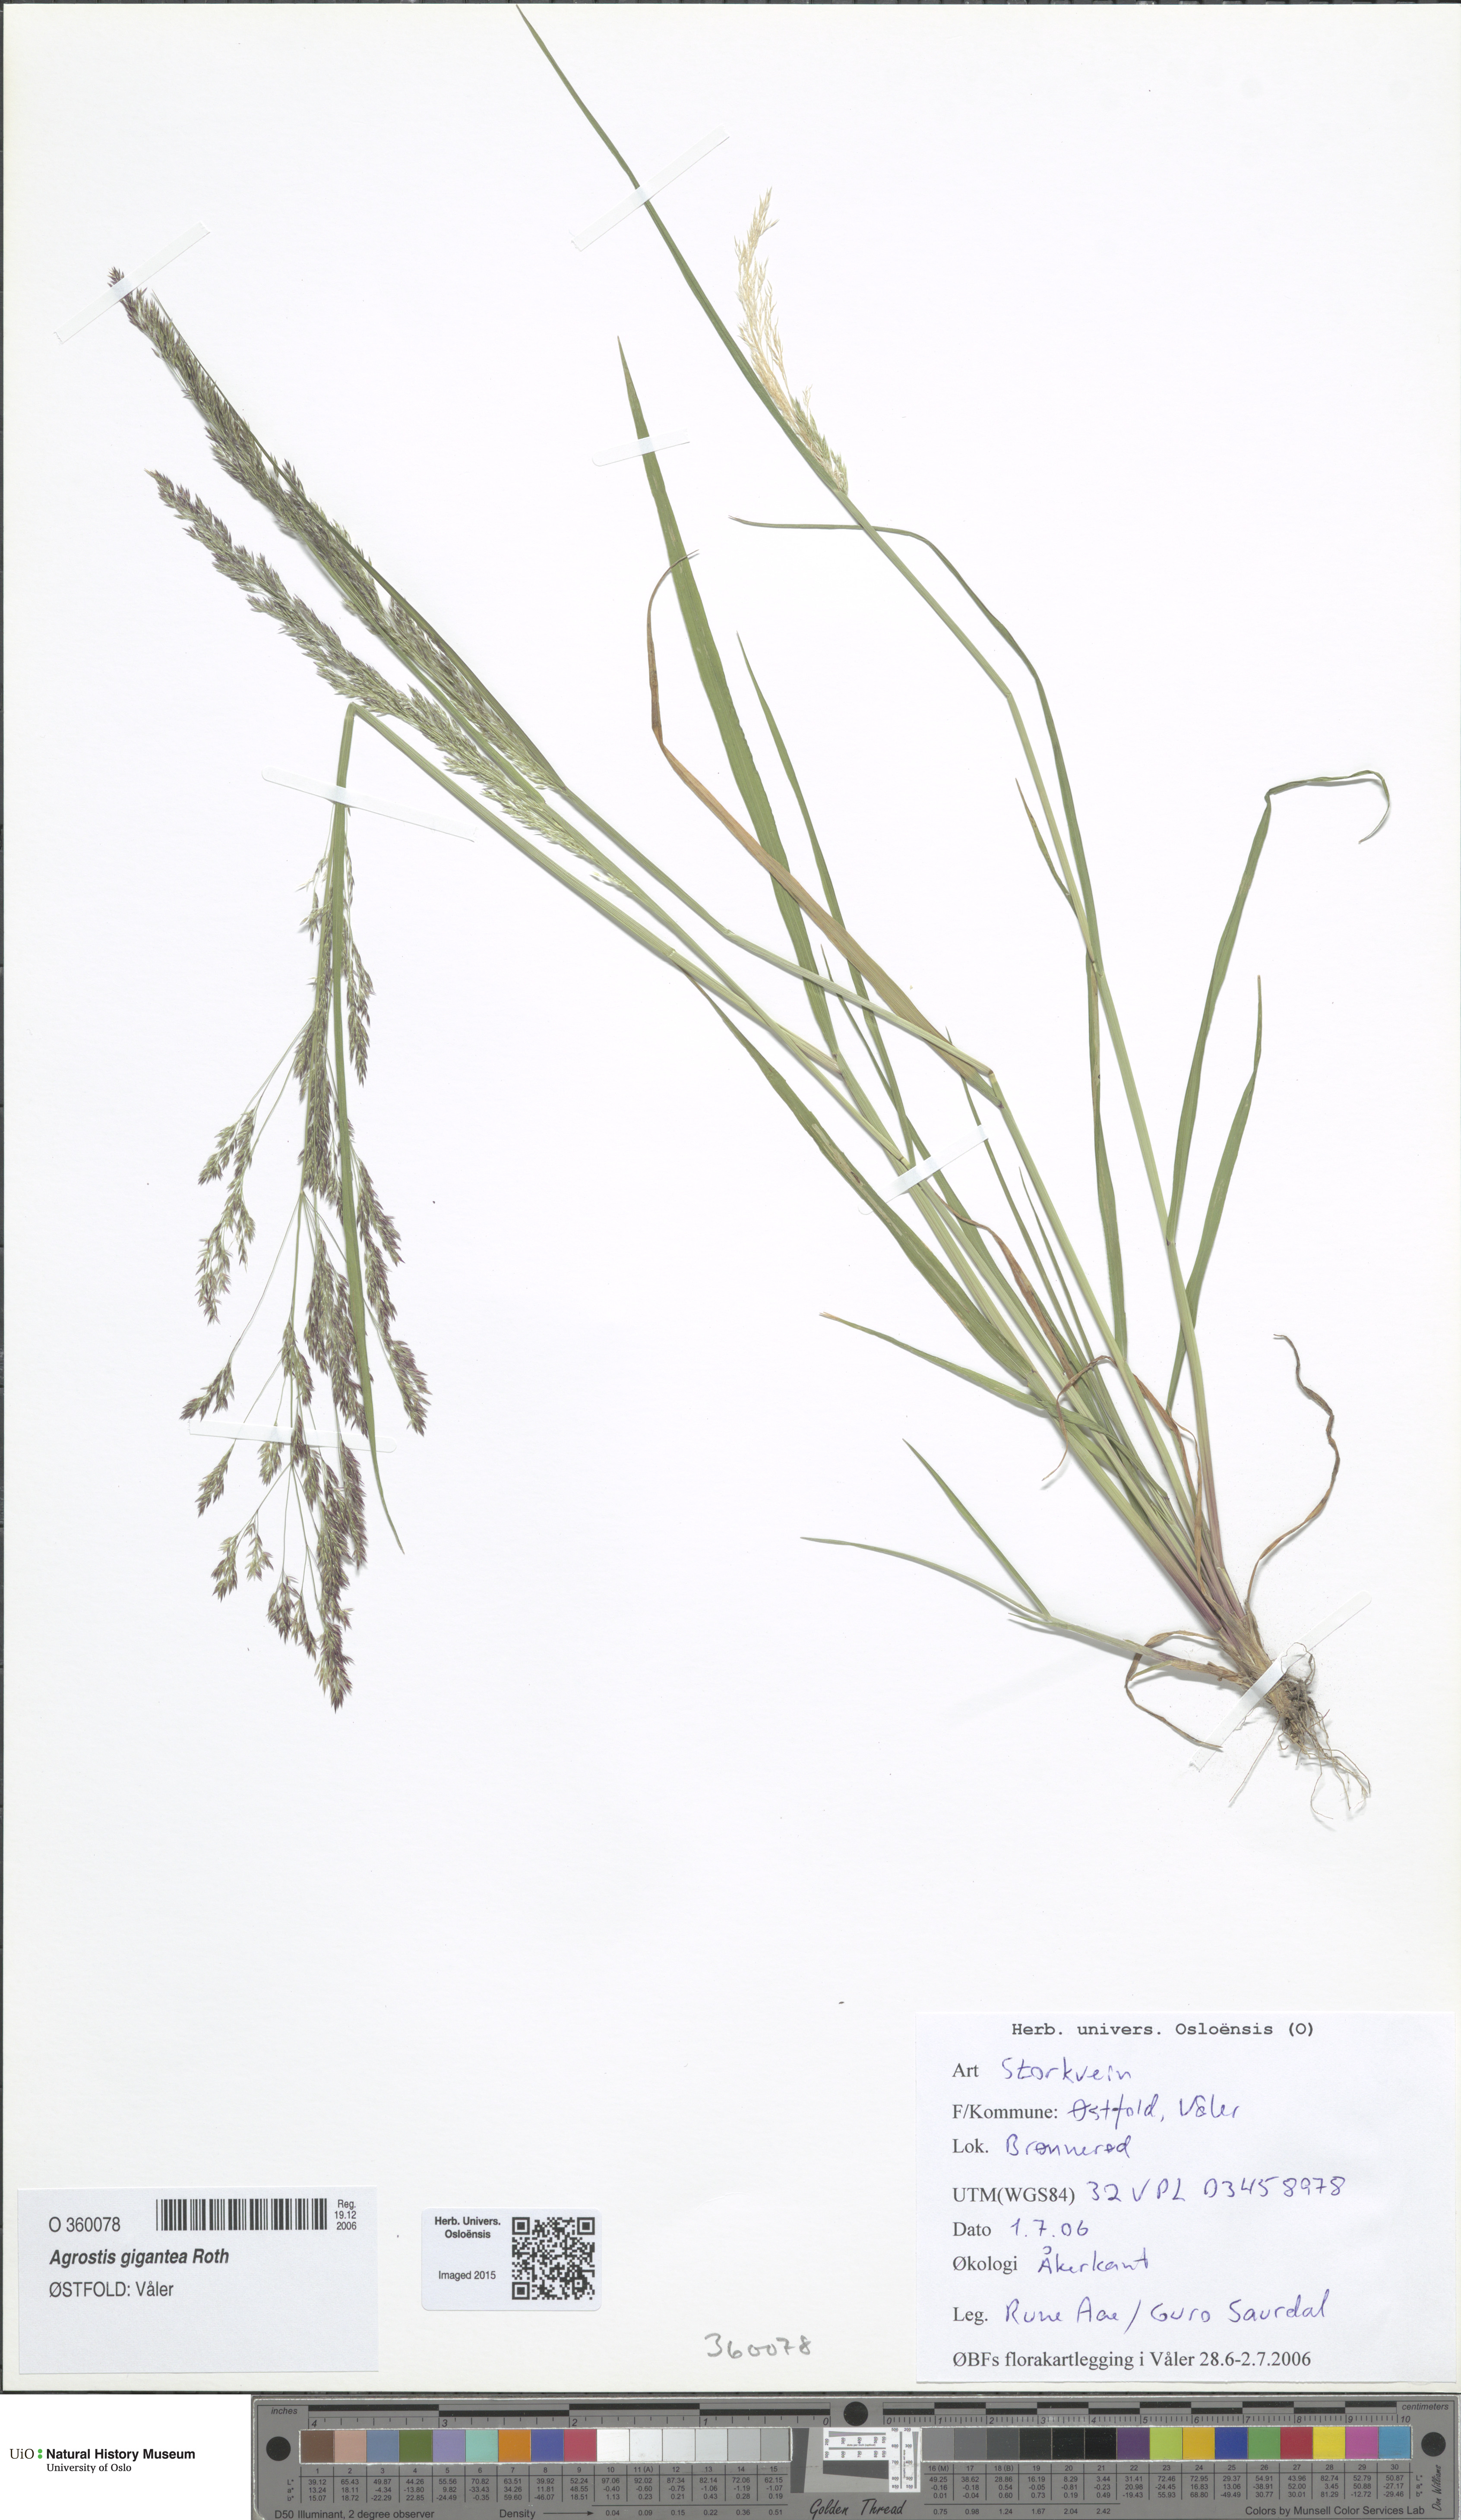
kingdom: Plantae
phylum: Tracheophyta
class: Liliopsida
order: Poales
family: Poaceae
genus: Agrostis
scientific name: Agrostis gigantea
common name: Black bent
